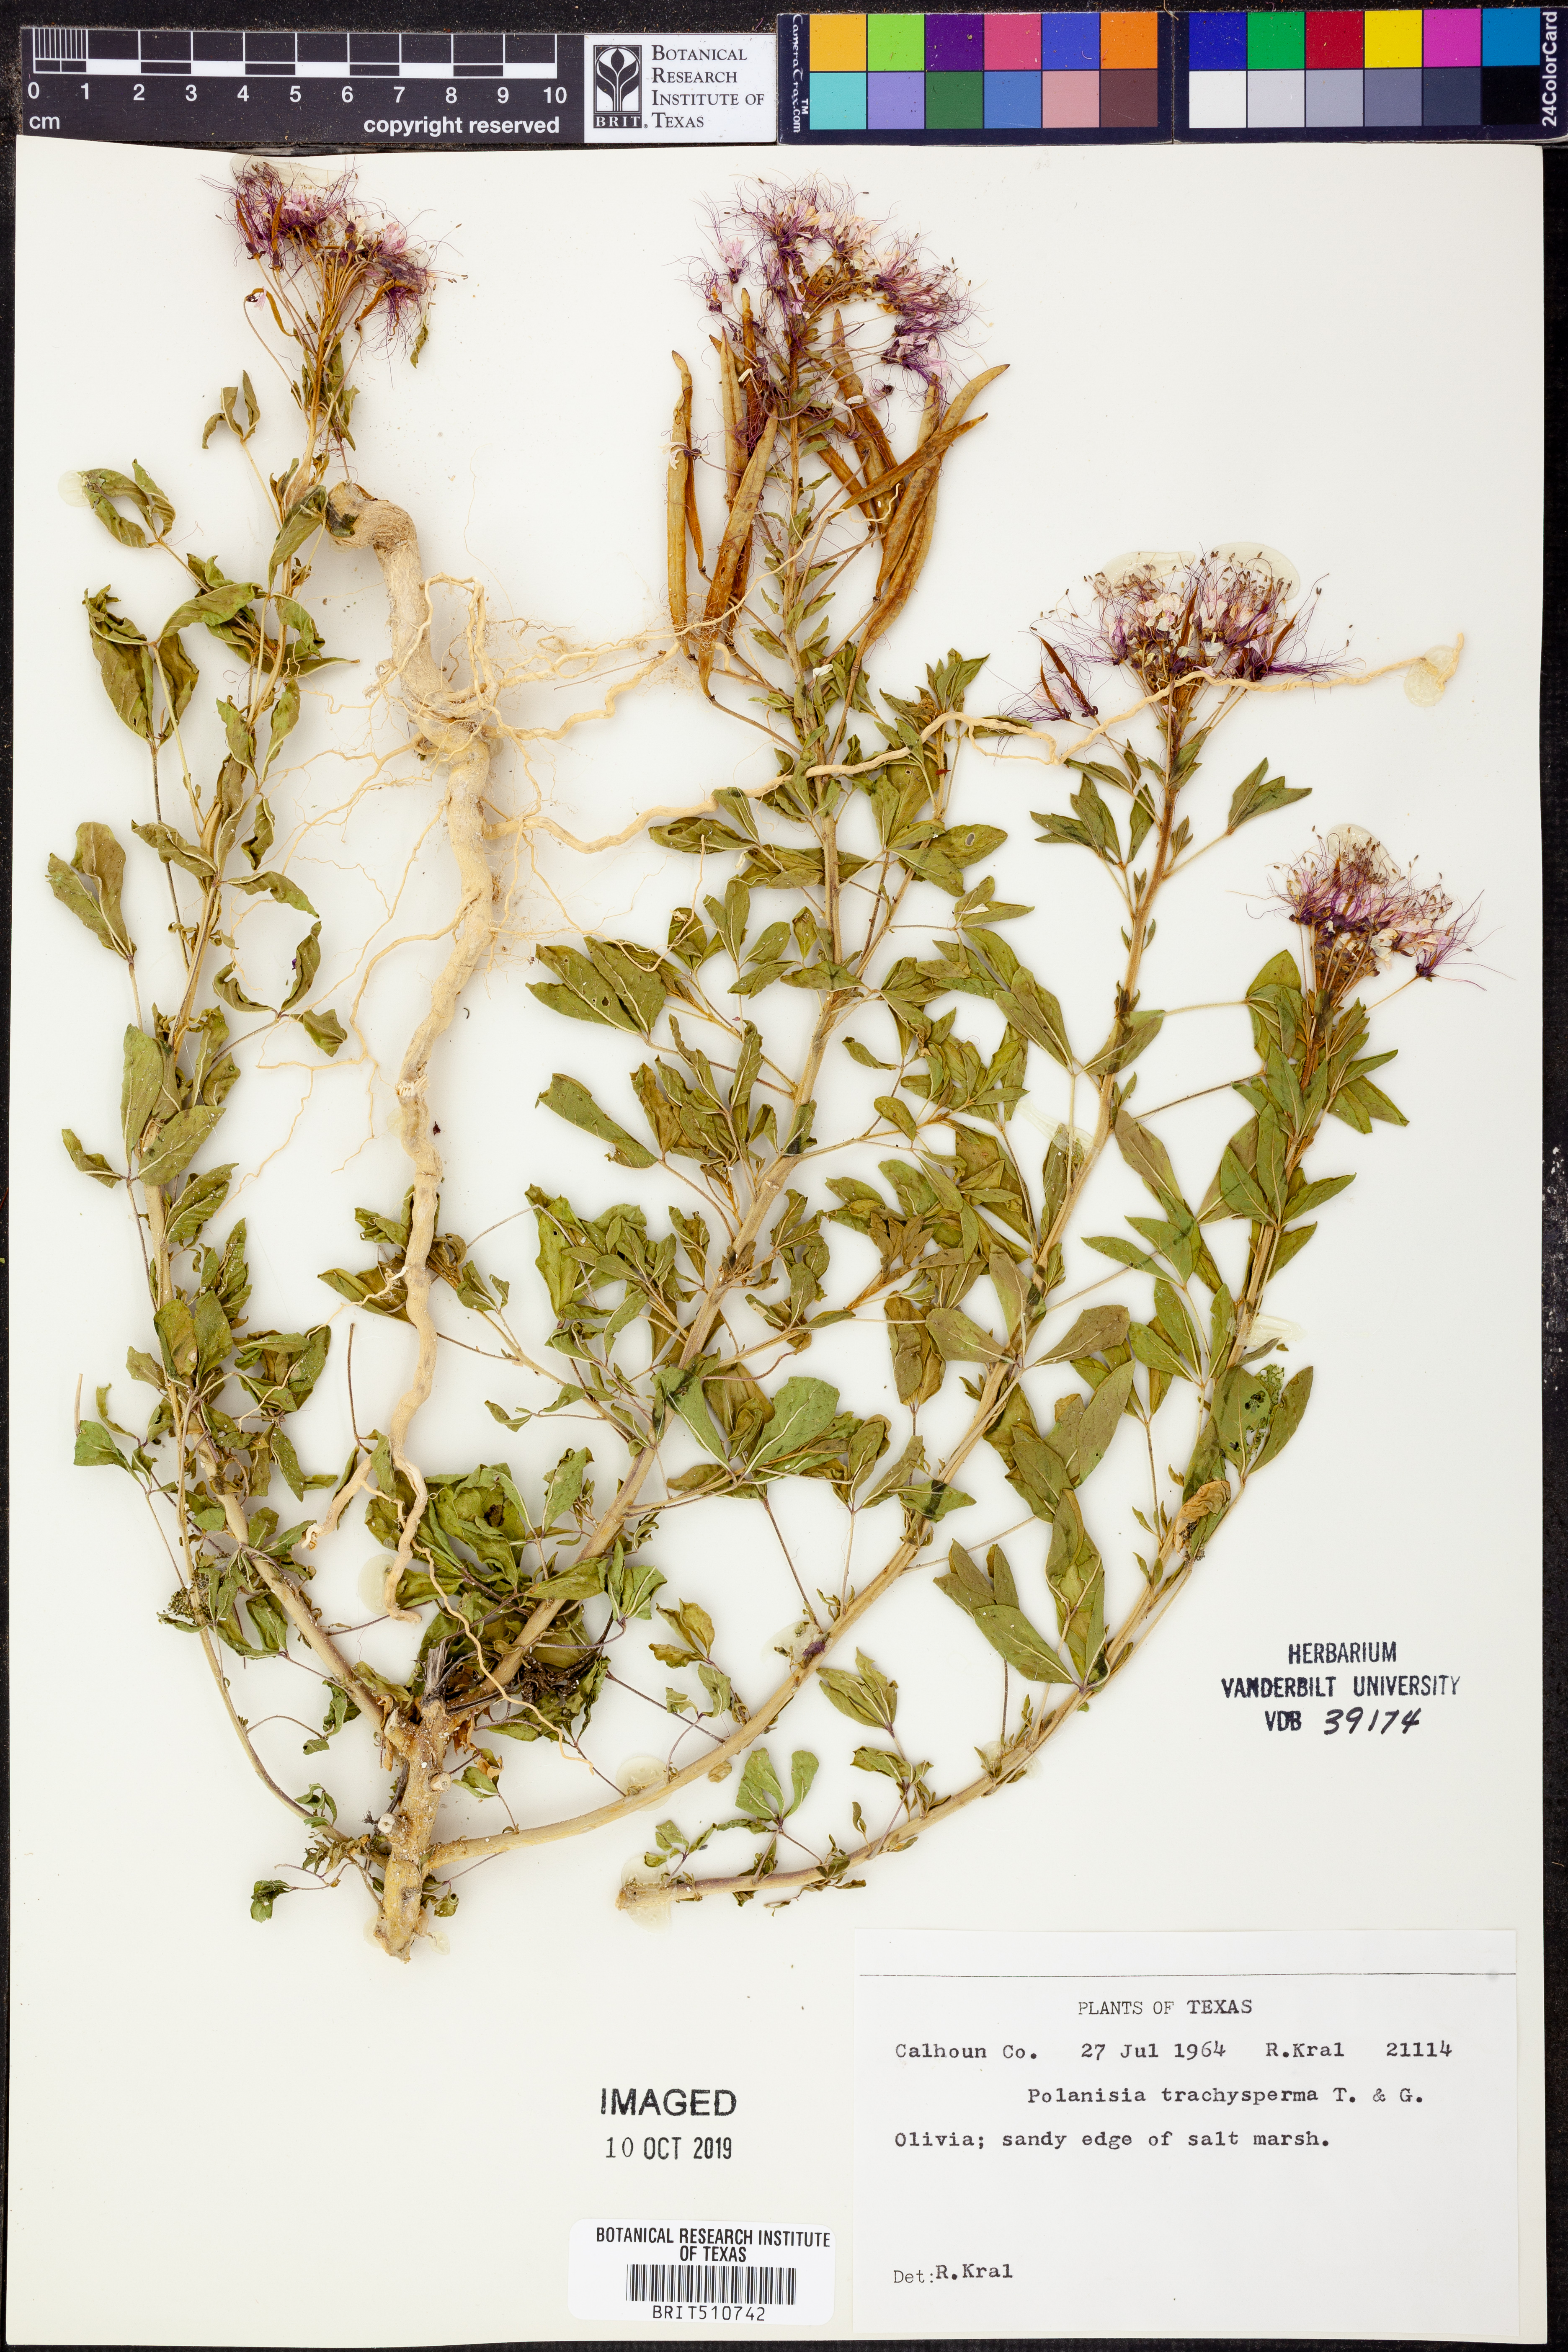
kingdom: Plantae
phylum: Tracheophyta
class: Magnoliopsida
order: Brassicales
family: Cleomaceae
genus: Polanisia
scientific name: Polanisia trachysperma
